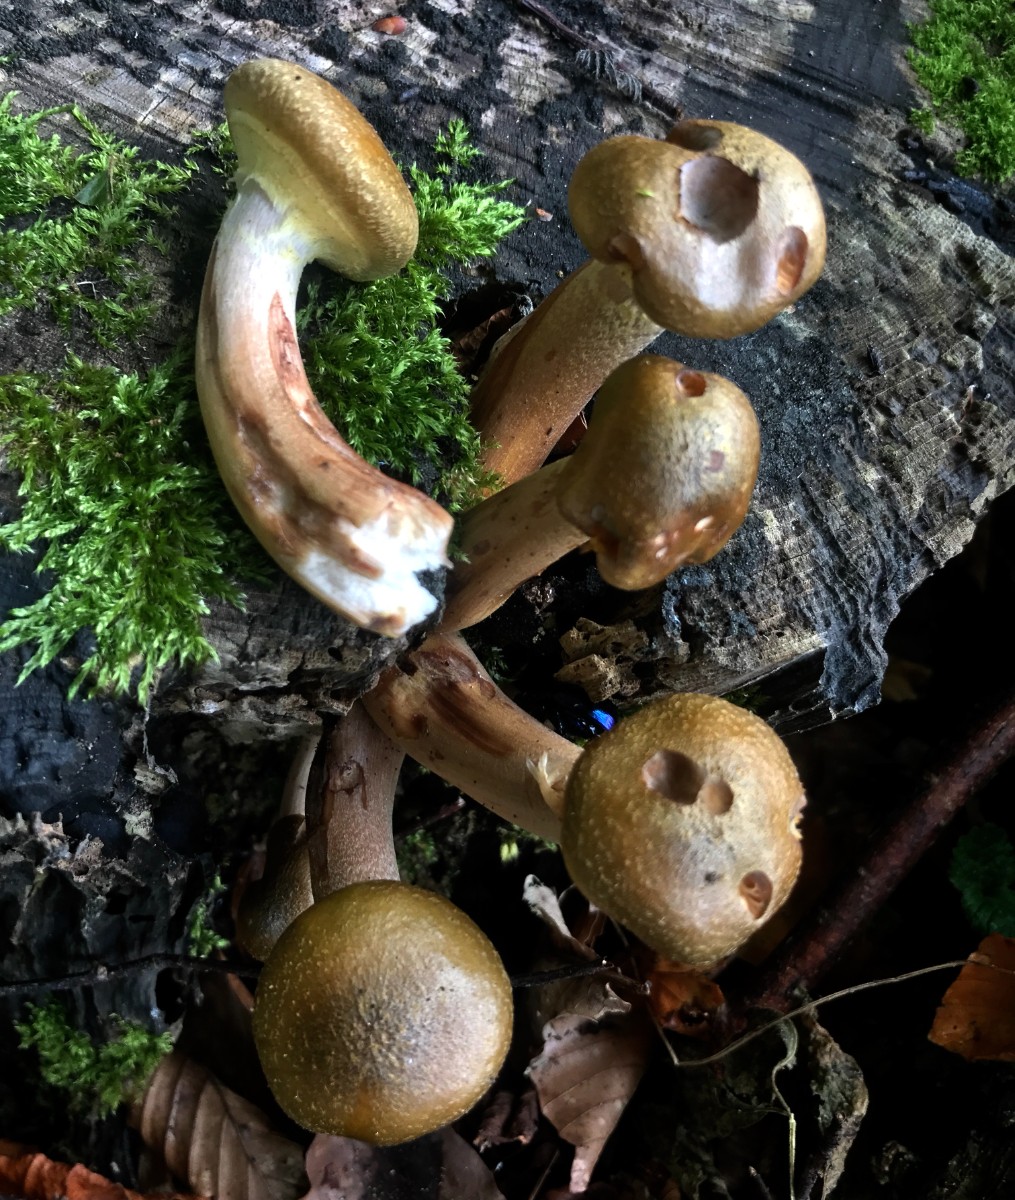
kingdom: Fungi
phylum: Basidiomycota
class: Agaricomycetes
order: Agaricales
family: Physalacriaceae
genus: Armillaria
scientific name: Armillaria mellea
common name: ægte honningsvamp
